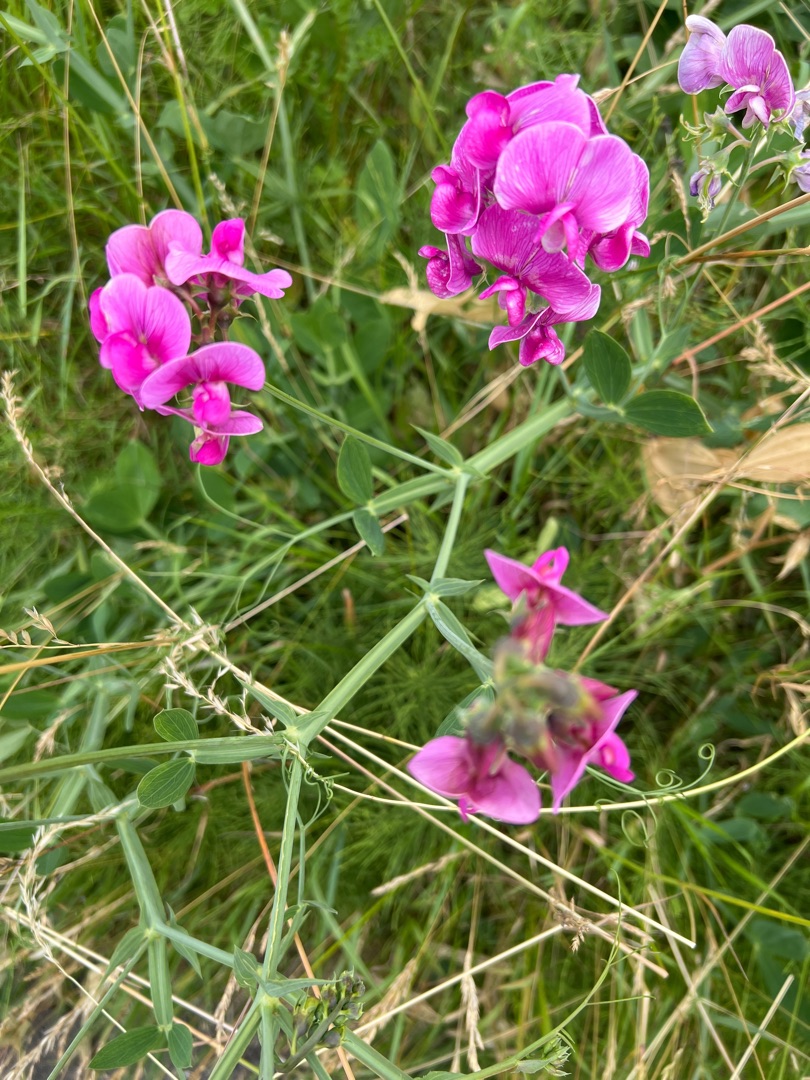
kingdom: Plantae
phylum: Tracheophyta
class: Magnoliopsida
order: Fabales
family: Fabaceae
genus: Lathyrus
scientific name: Lathyrus latifolius
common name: Flerårig ærteblomst
